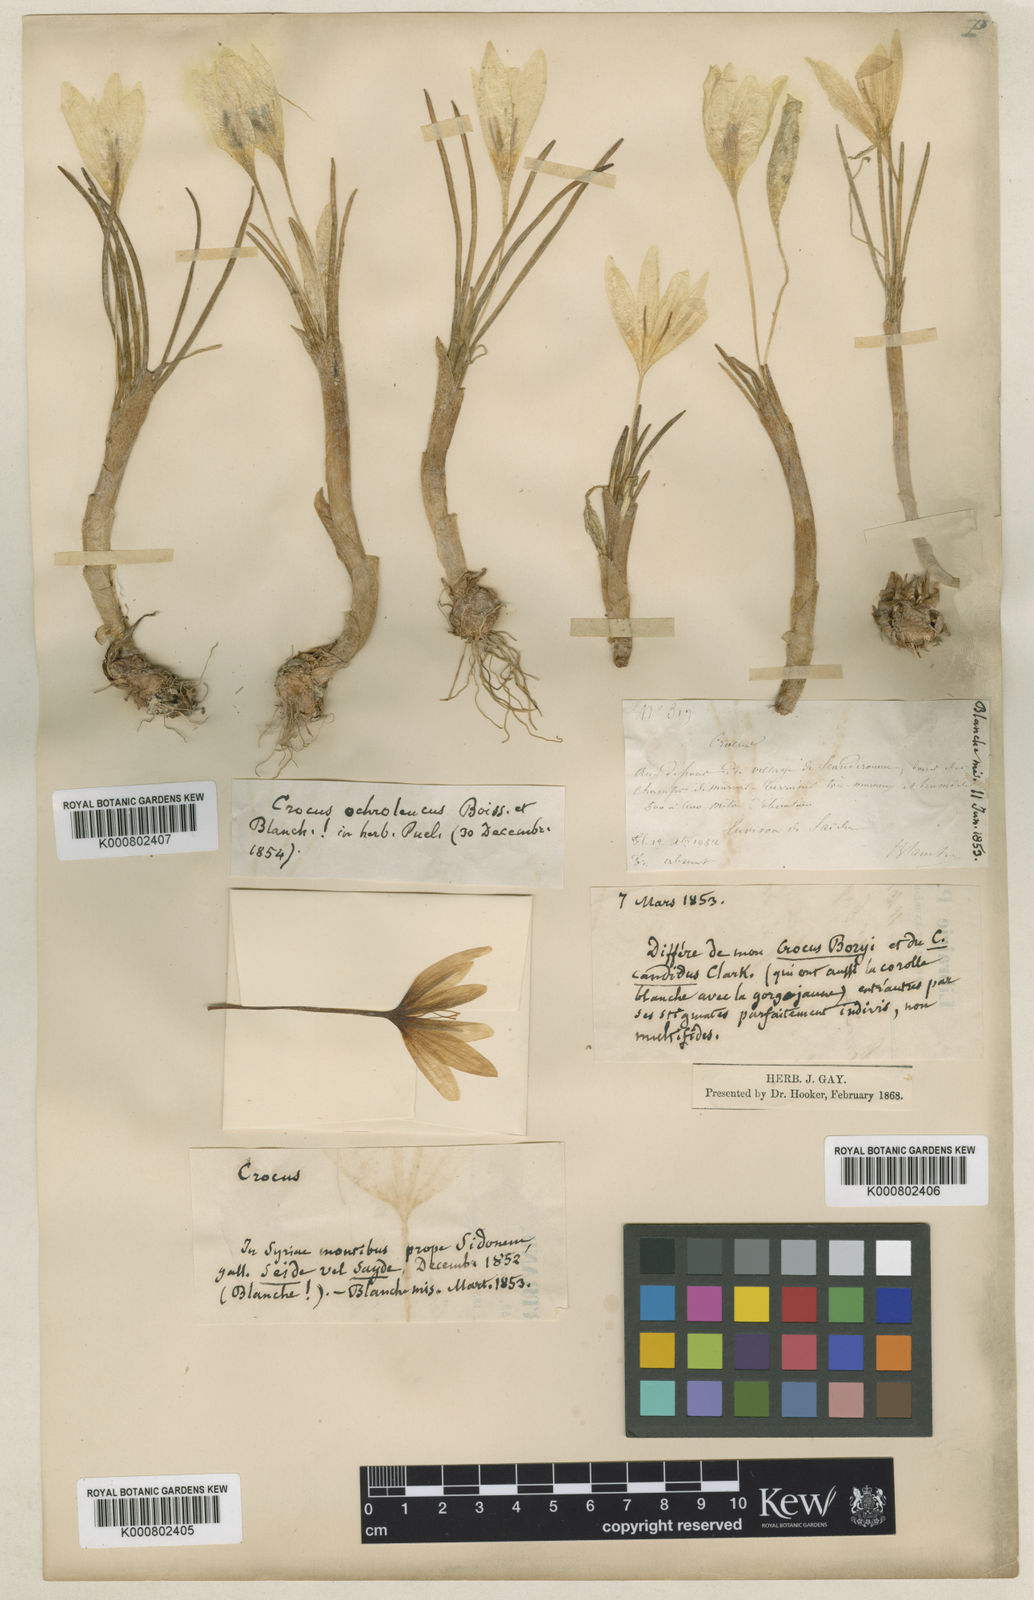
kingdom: Plantae
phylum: Tracheophyta
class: Liliopsida
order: Asparagales
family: Iridaceae
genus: Crocus
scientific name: Crocus ochroleucus
